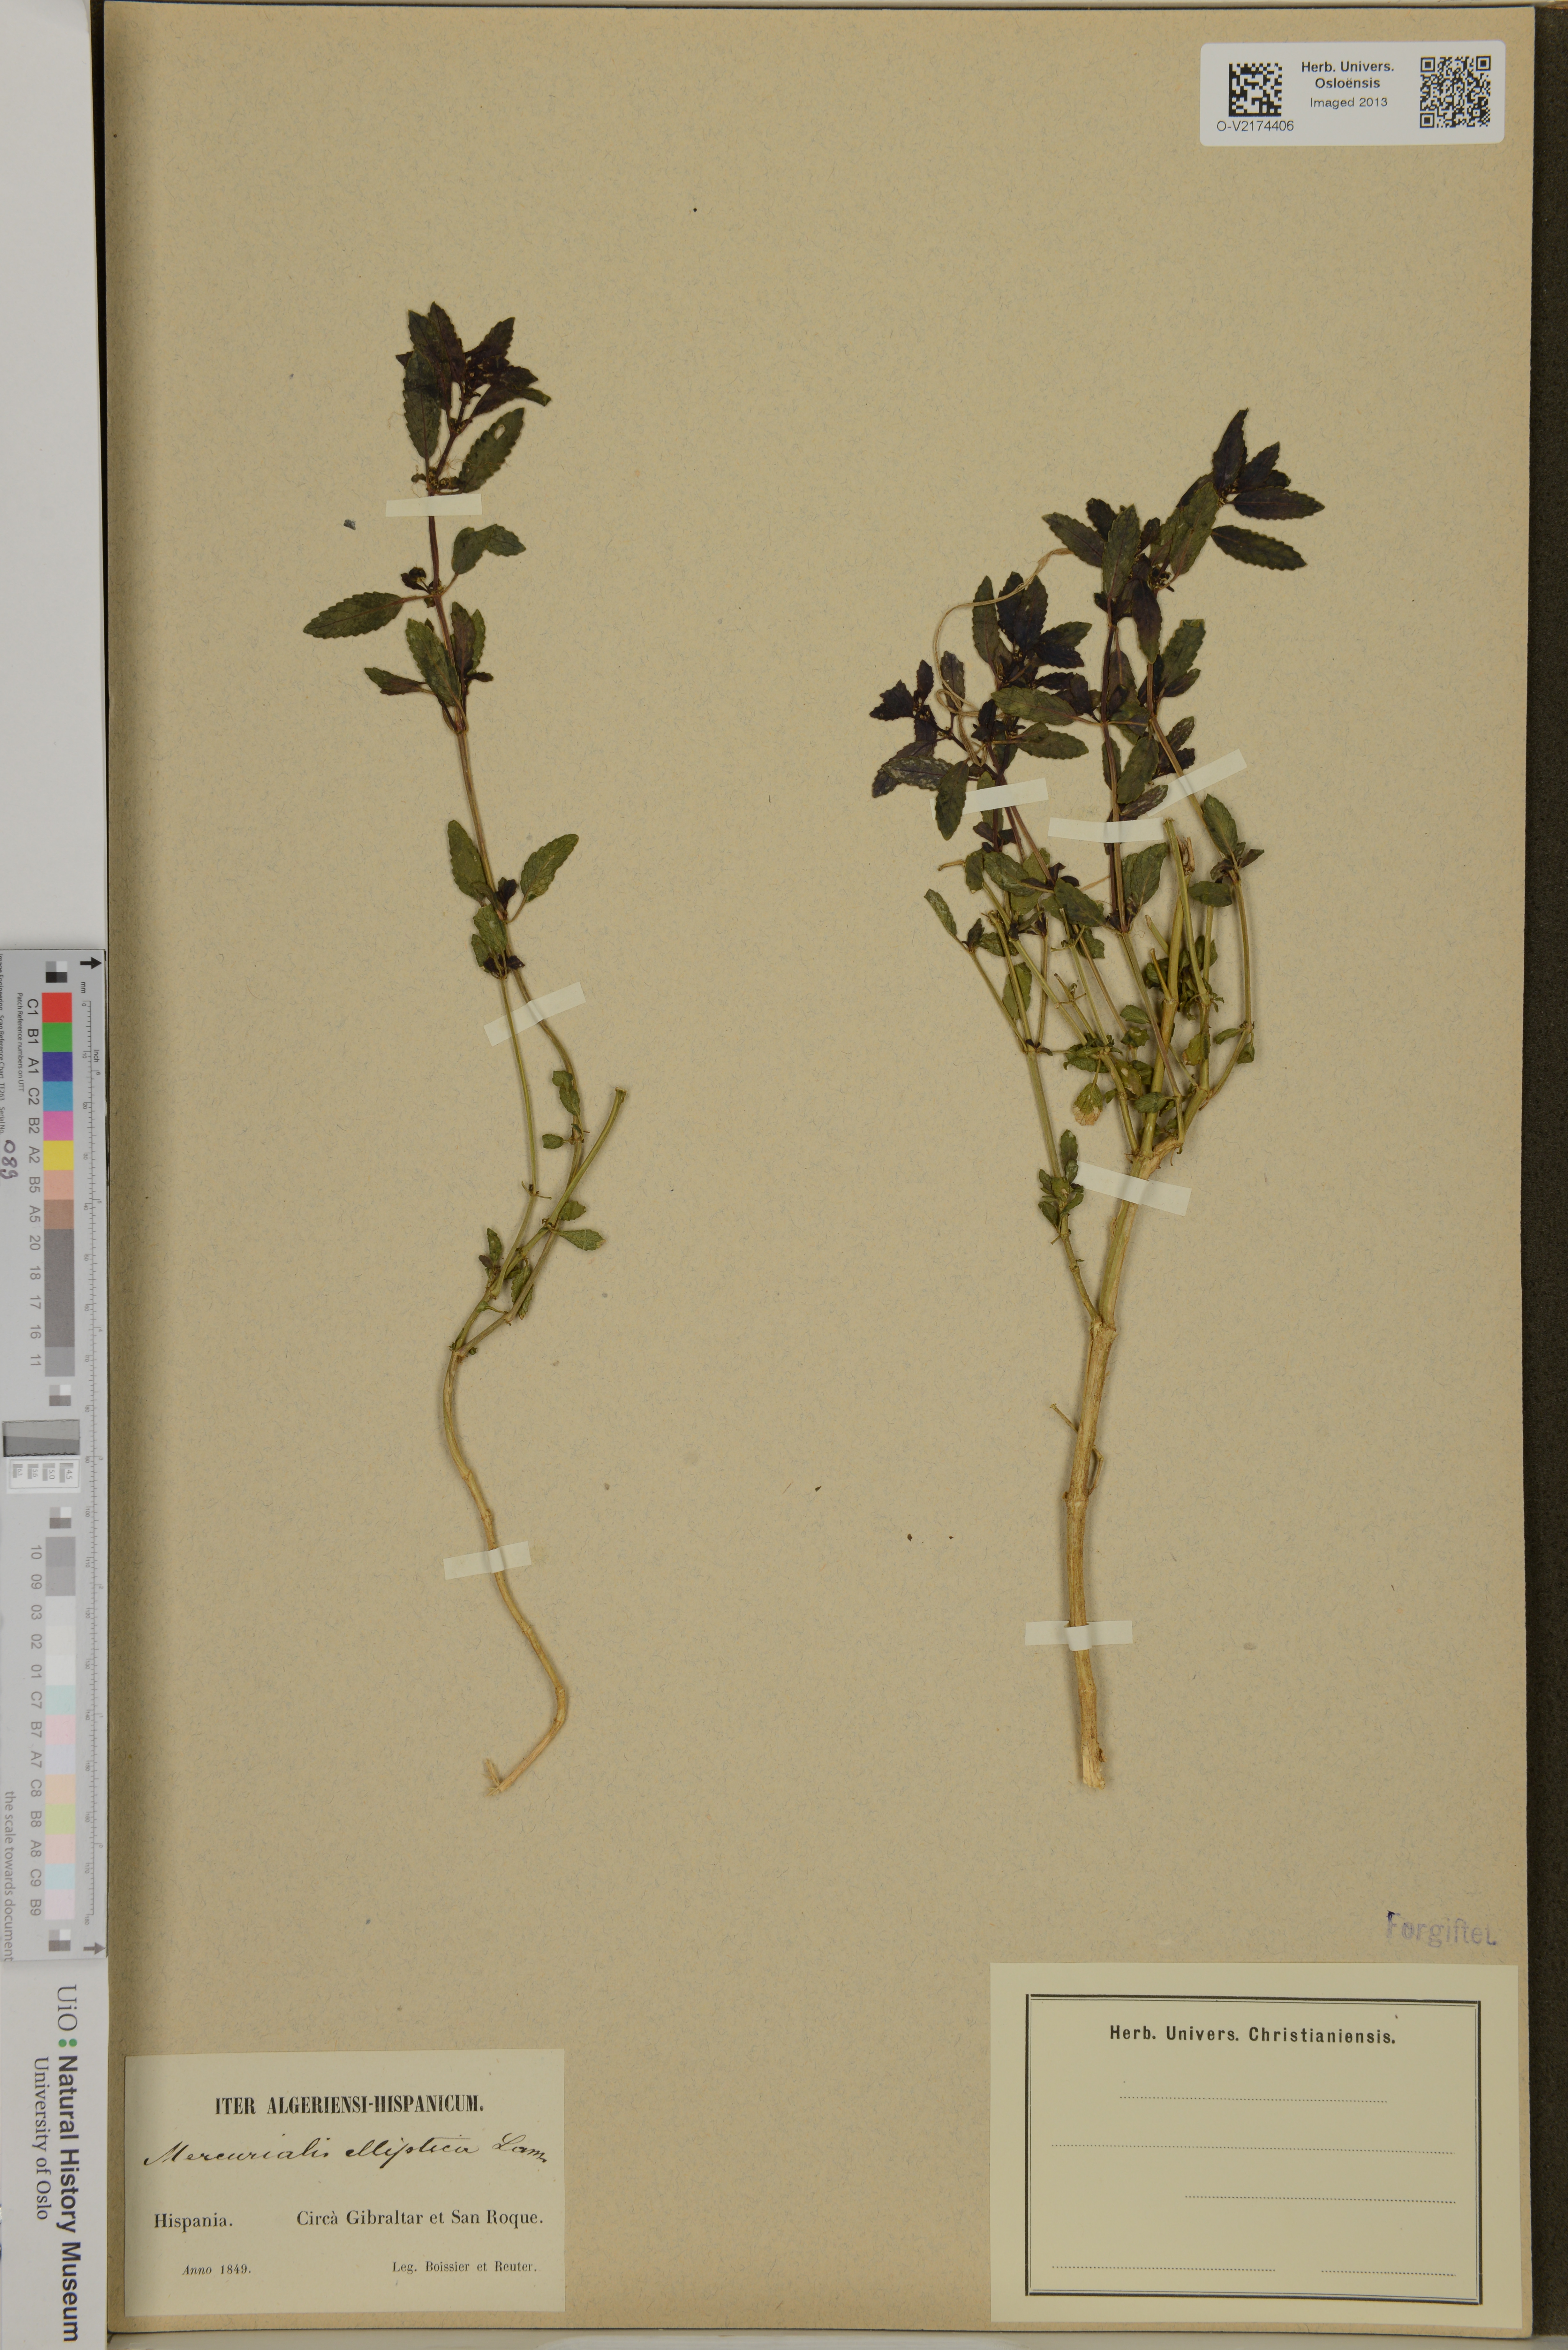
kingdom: Plantae
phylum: Tracheophyta
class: Magnoliopsida
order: Malpighiales
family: Euphorbiaceae
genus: Mercurialis
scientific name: Mercurialis elliptica
